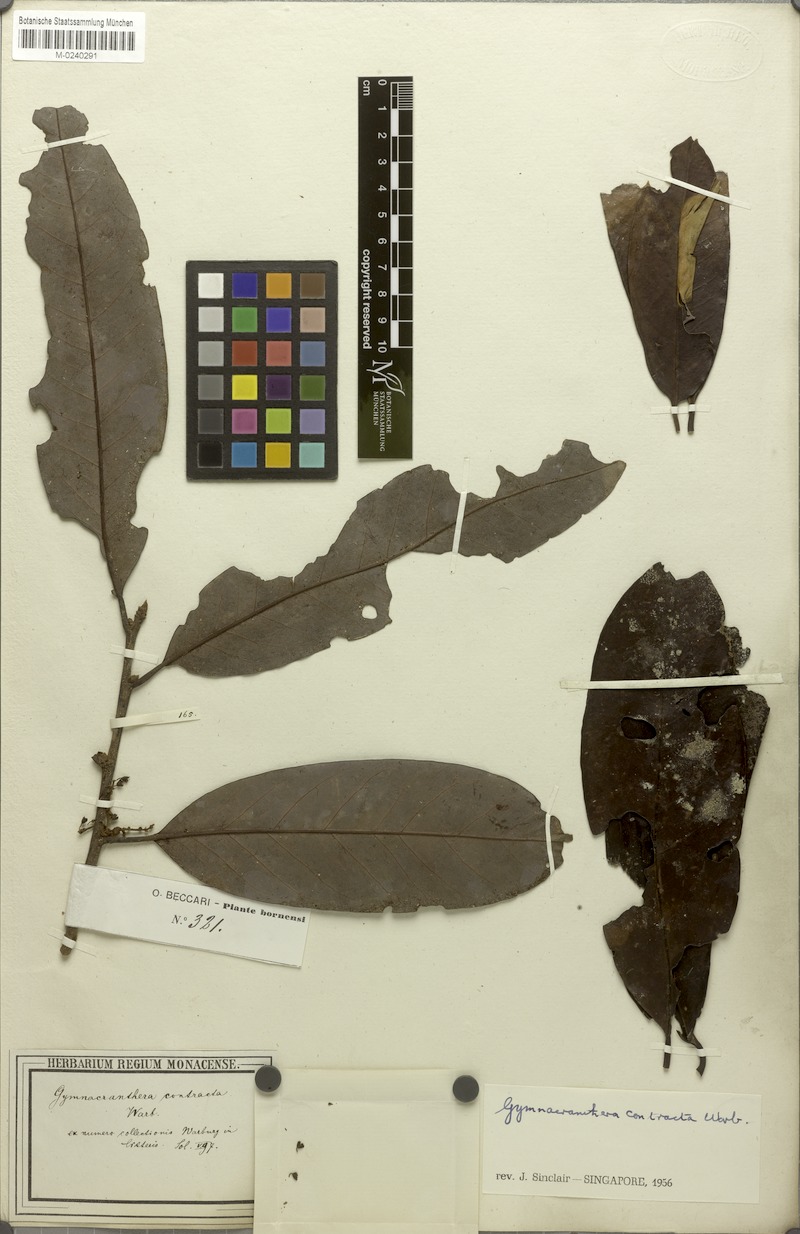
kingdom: Plantae
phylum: Tracheophyta
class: Magnoliopsida
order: Magnoliales
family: Myristicaceae
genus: Gymnacranthera
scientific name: Gymnacranthera contracta
